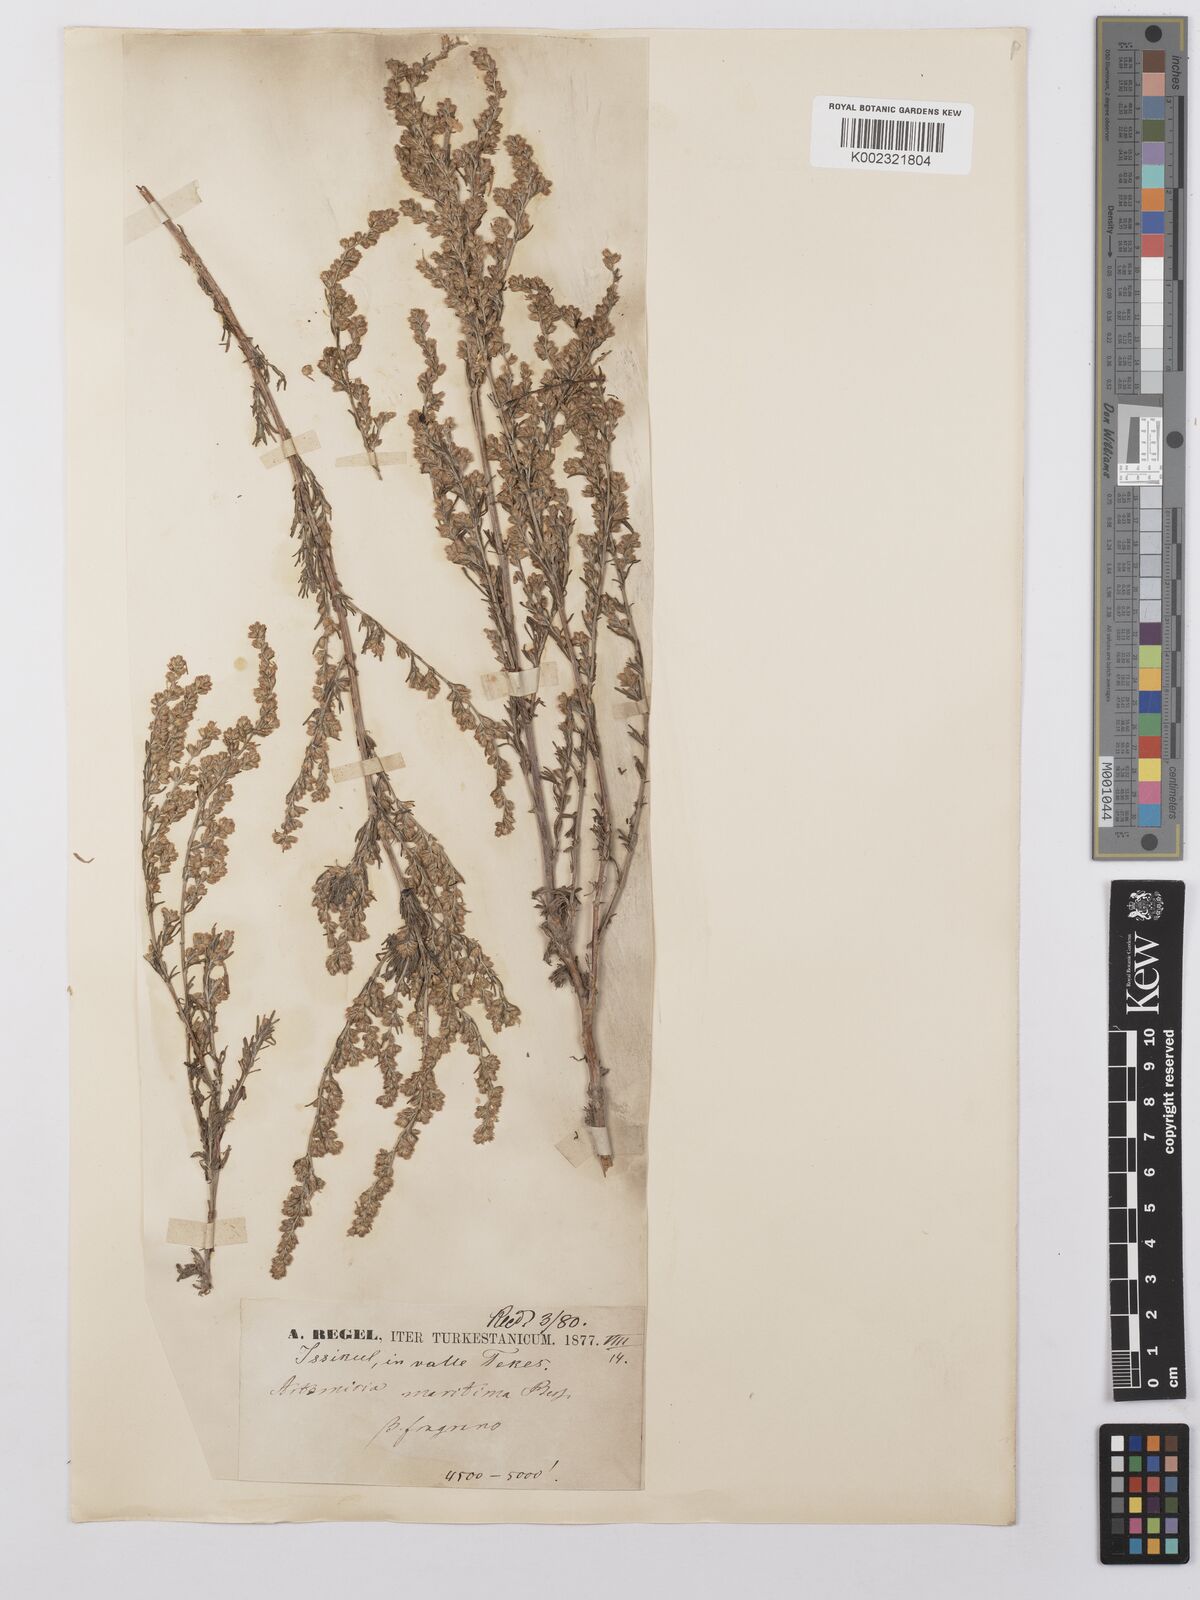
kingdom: Plantae
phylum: Tracheophyta
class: Magnoliopsida
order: Asterales
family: Asteraceae
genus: Artemisia
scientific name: Artemisia fragrans
